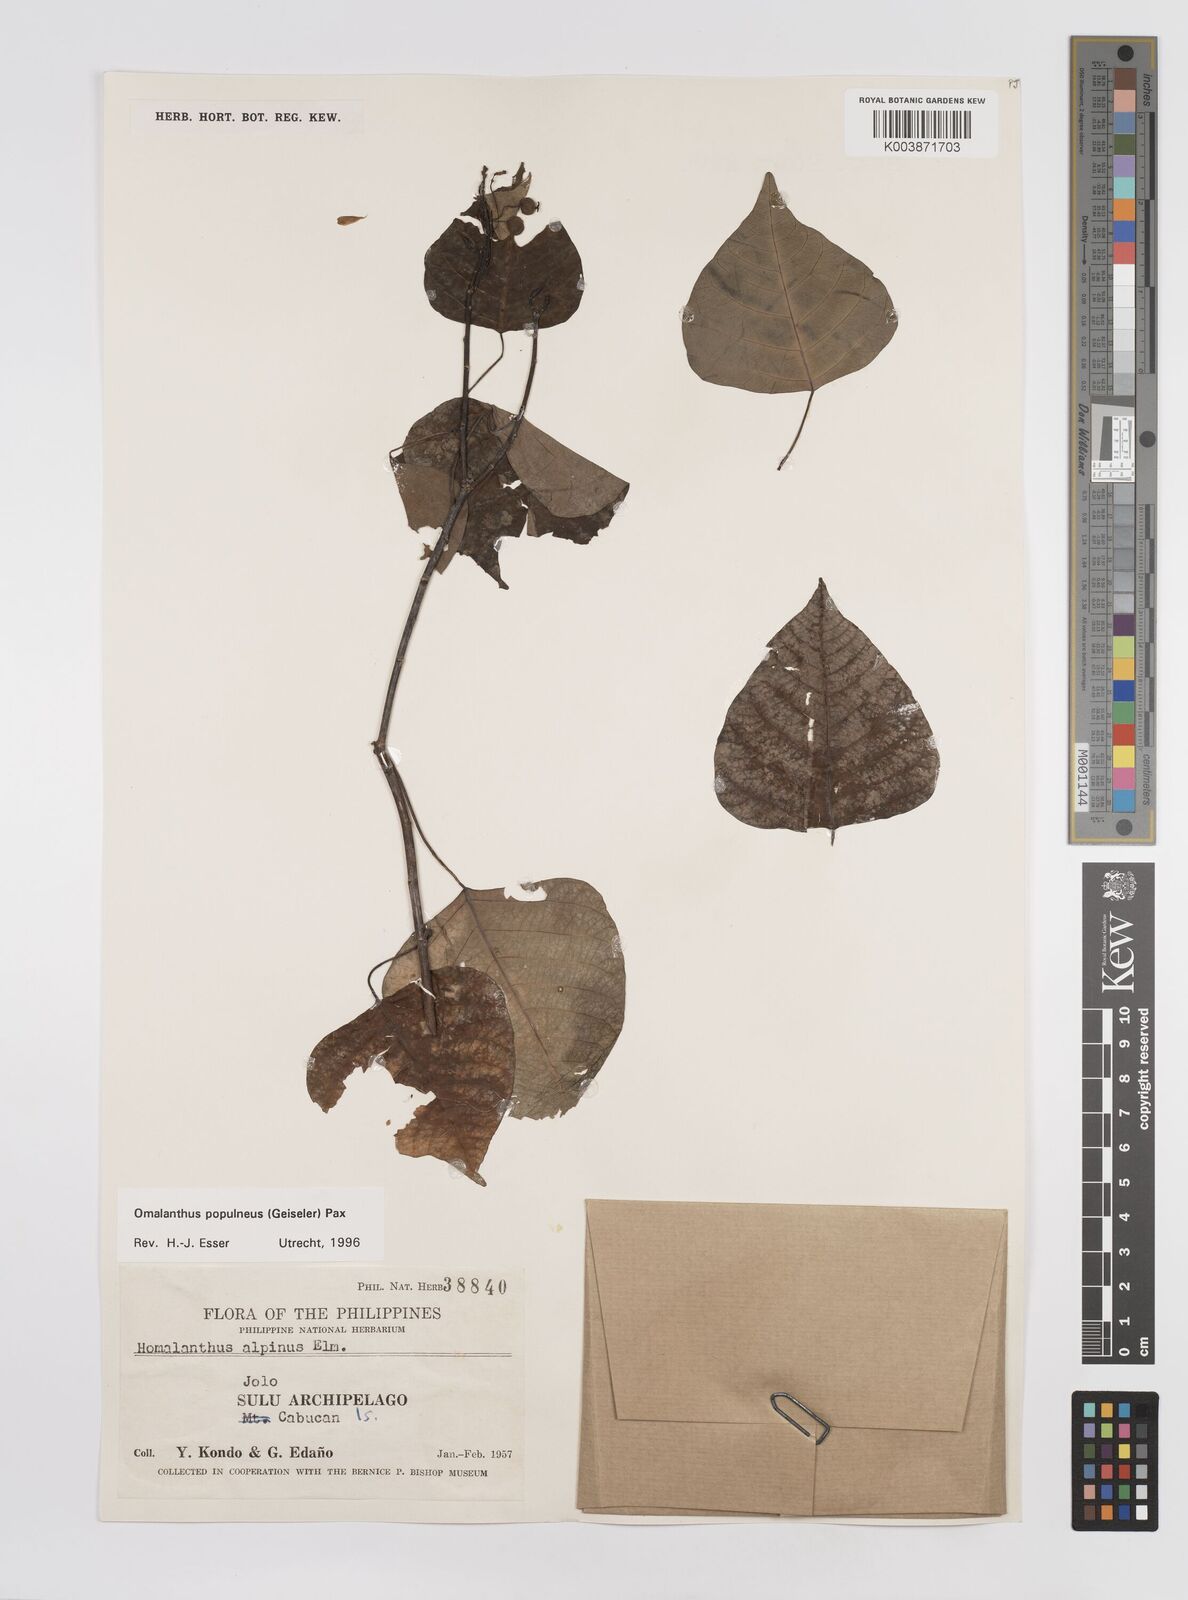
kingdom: Plantae
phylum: Tracheophyta
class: Magnoliopsida
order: Malpighiales
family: Euphorbiaceae
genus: Homalanthus
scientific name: Homalanthus populneus
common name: Spurge
